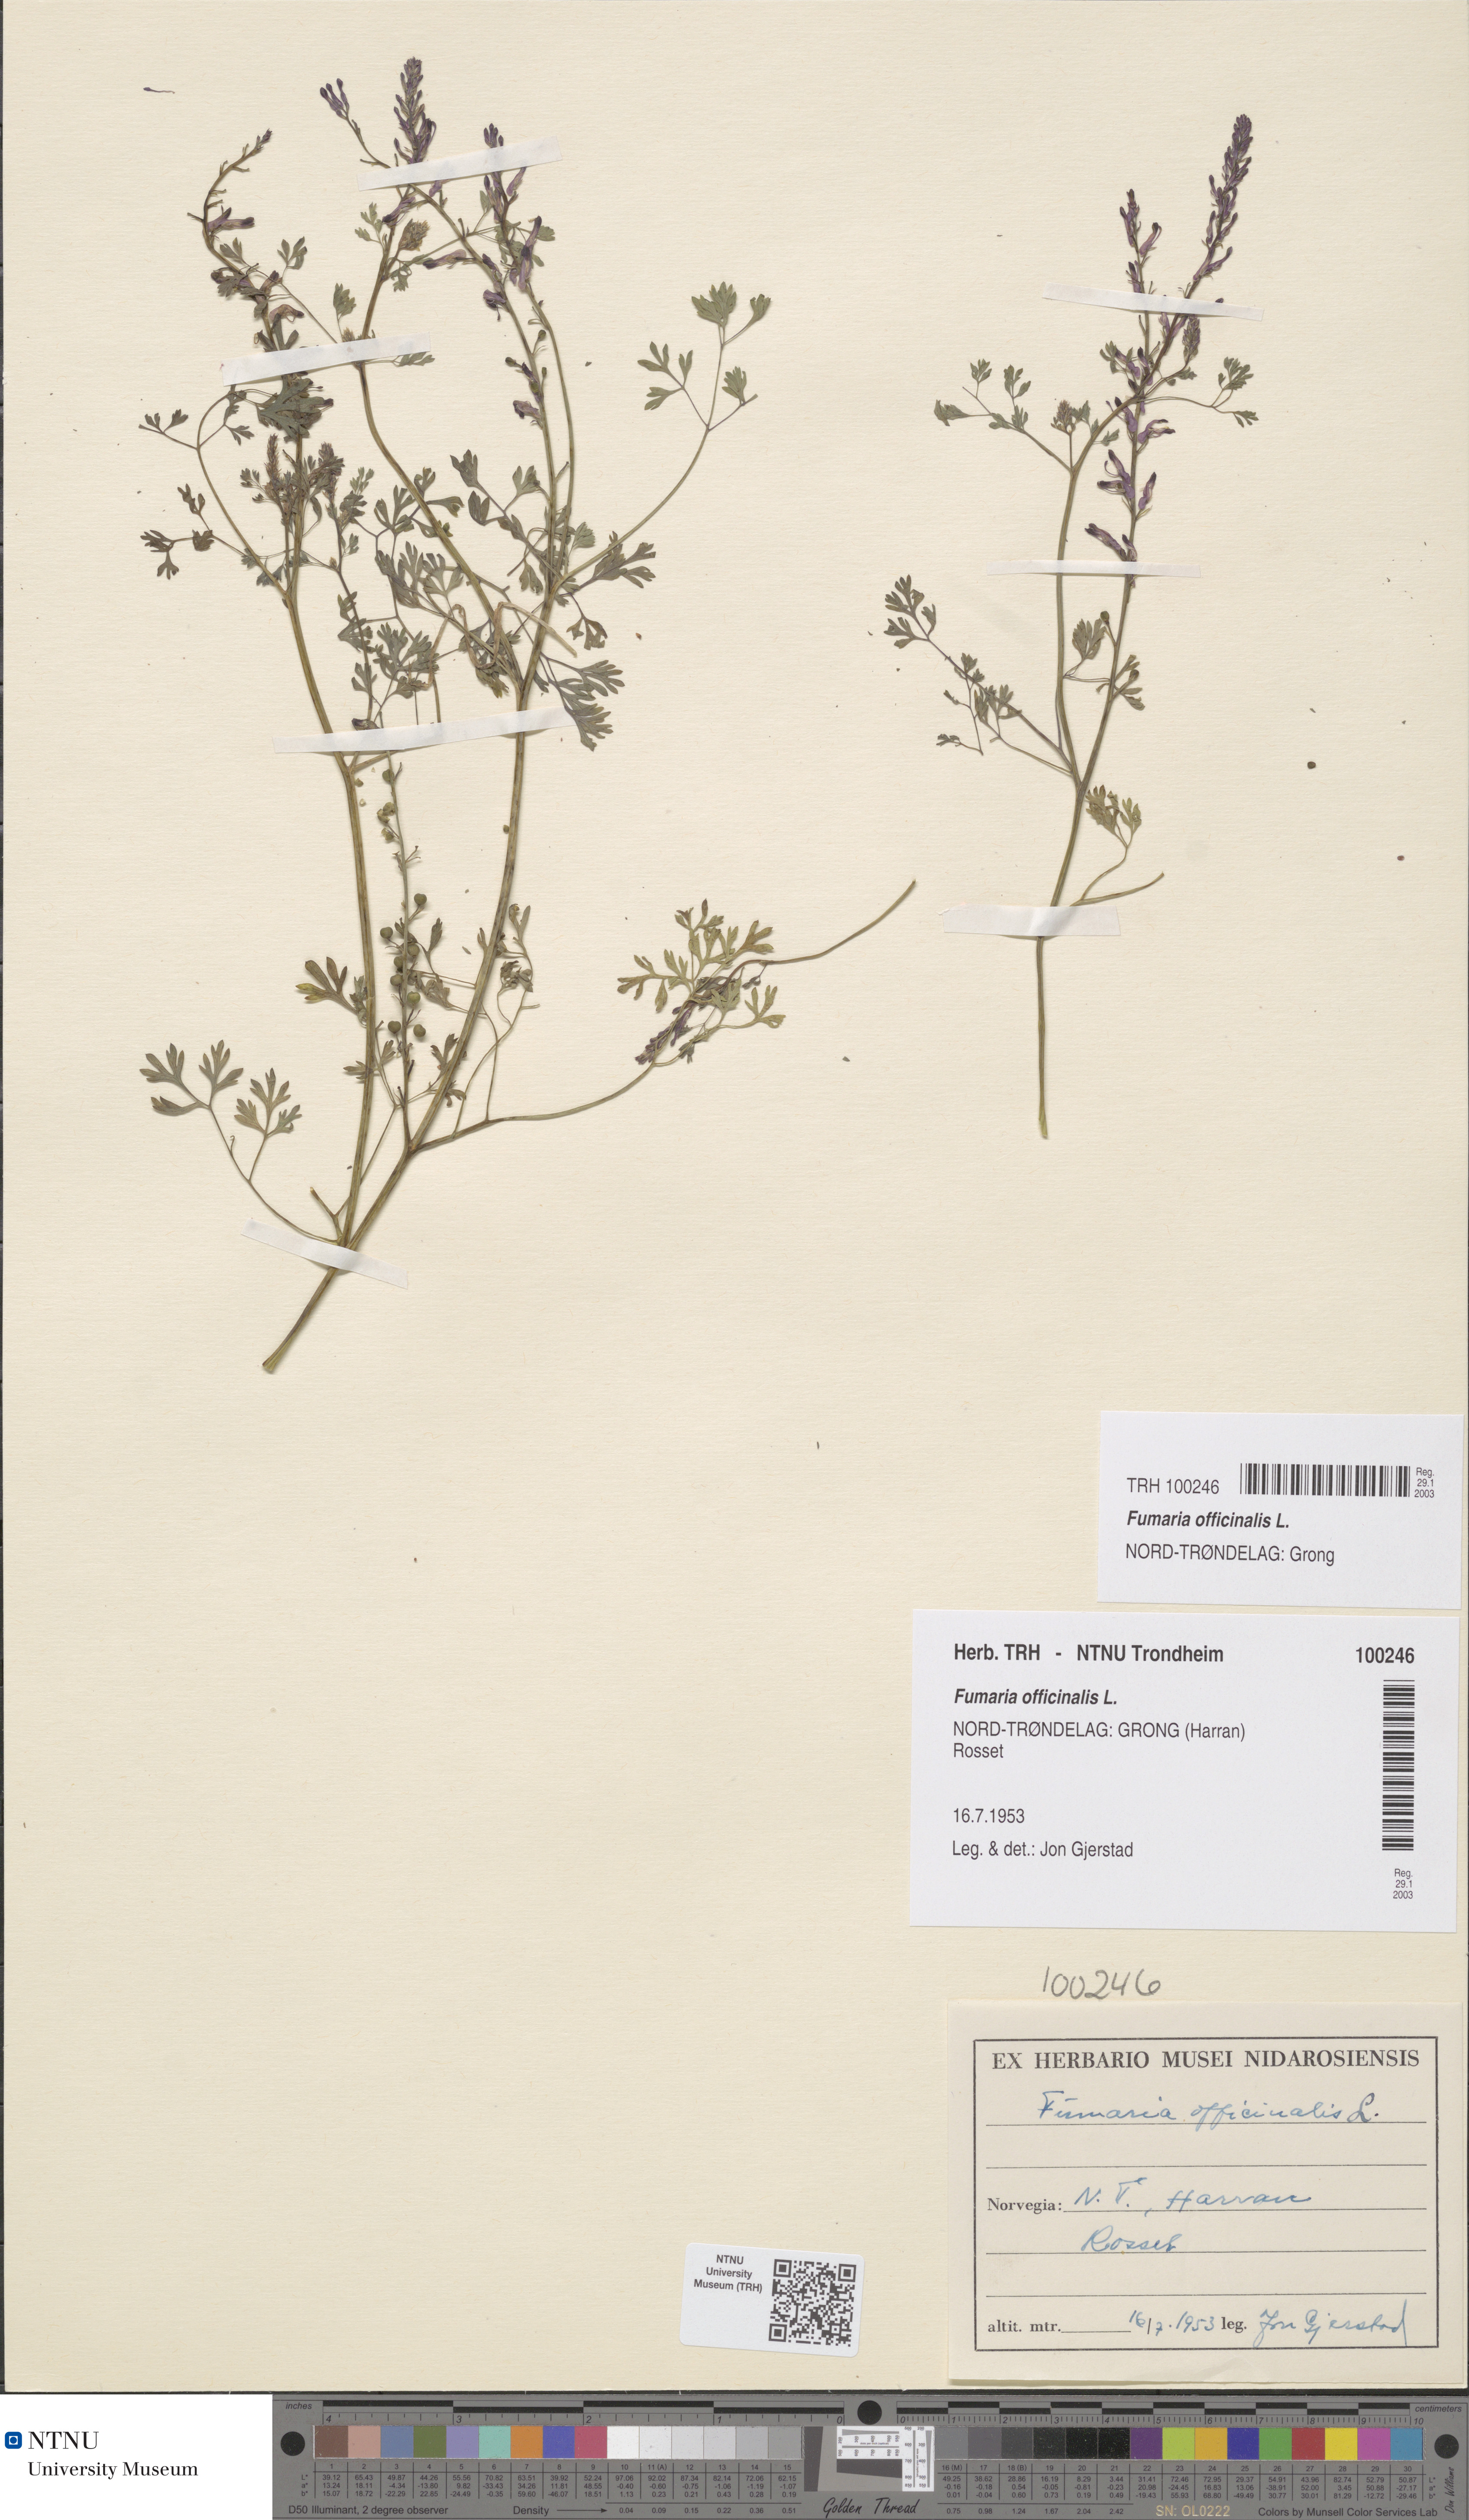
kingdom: Plantae
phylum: Tracheophyta
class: Magnoliopsida
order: Ranunculales
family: Papaveraceae
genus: Fumaria
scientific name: Fumaria officinalis
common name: Common fumitory
